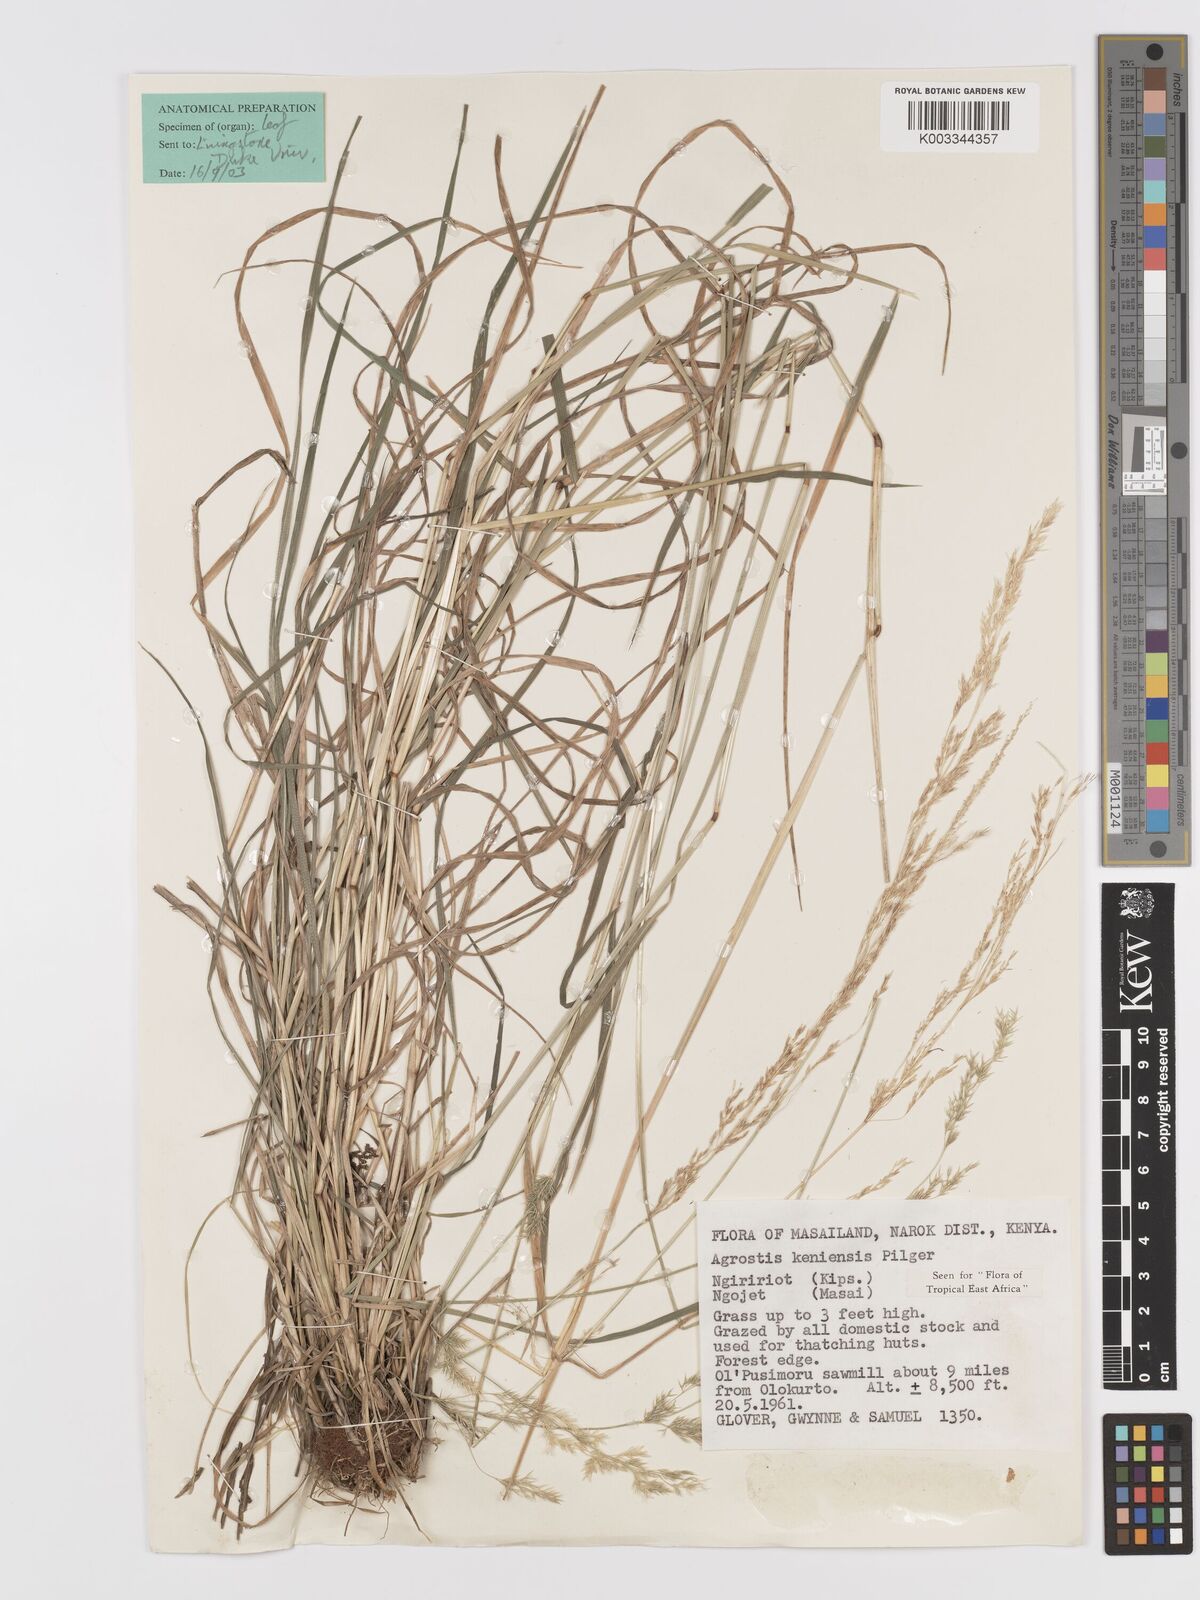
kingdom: Plantae
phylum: Tracheophyta
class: Liliopsida
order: Poales
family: Poaceae
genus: Agrostis
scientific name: Agrostis keniensis
